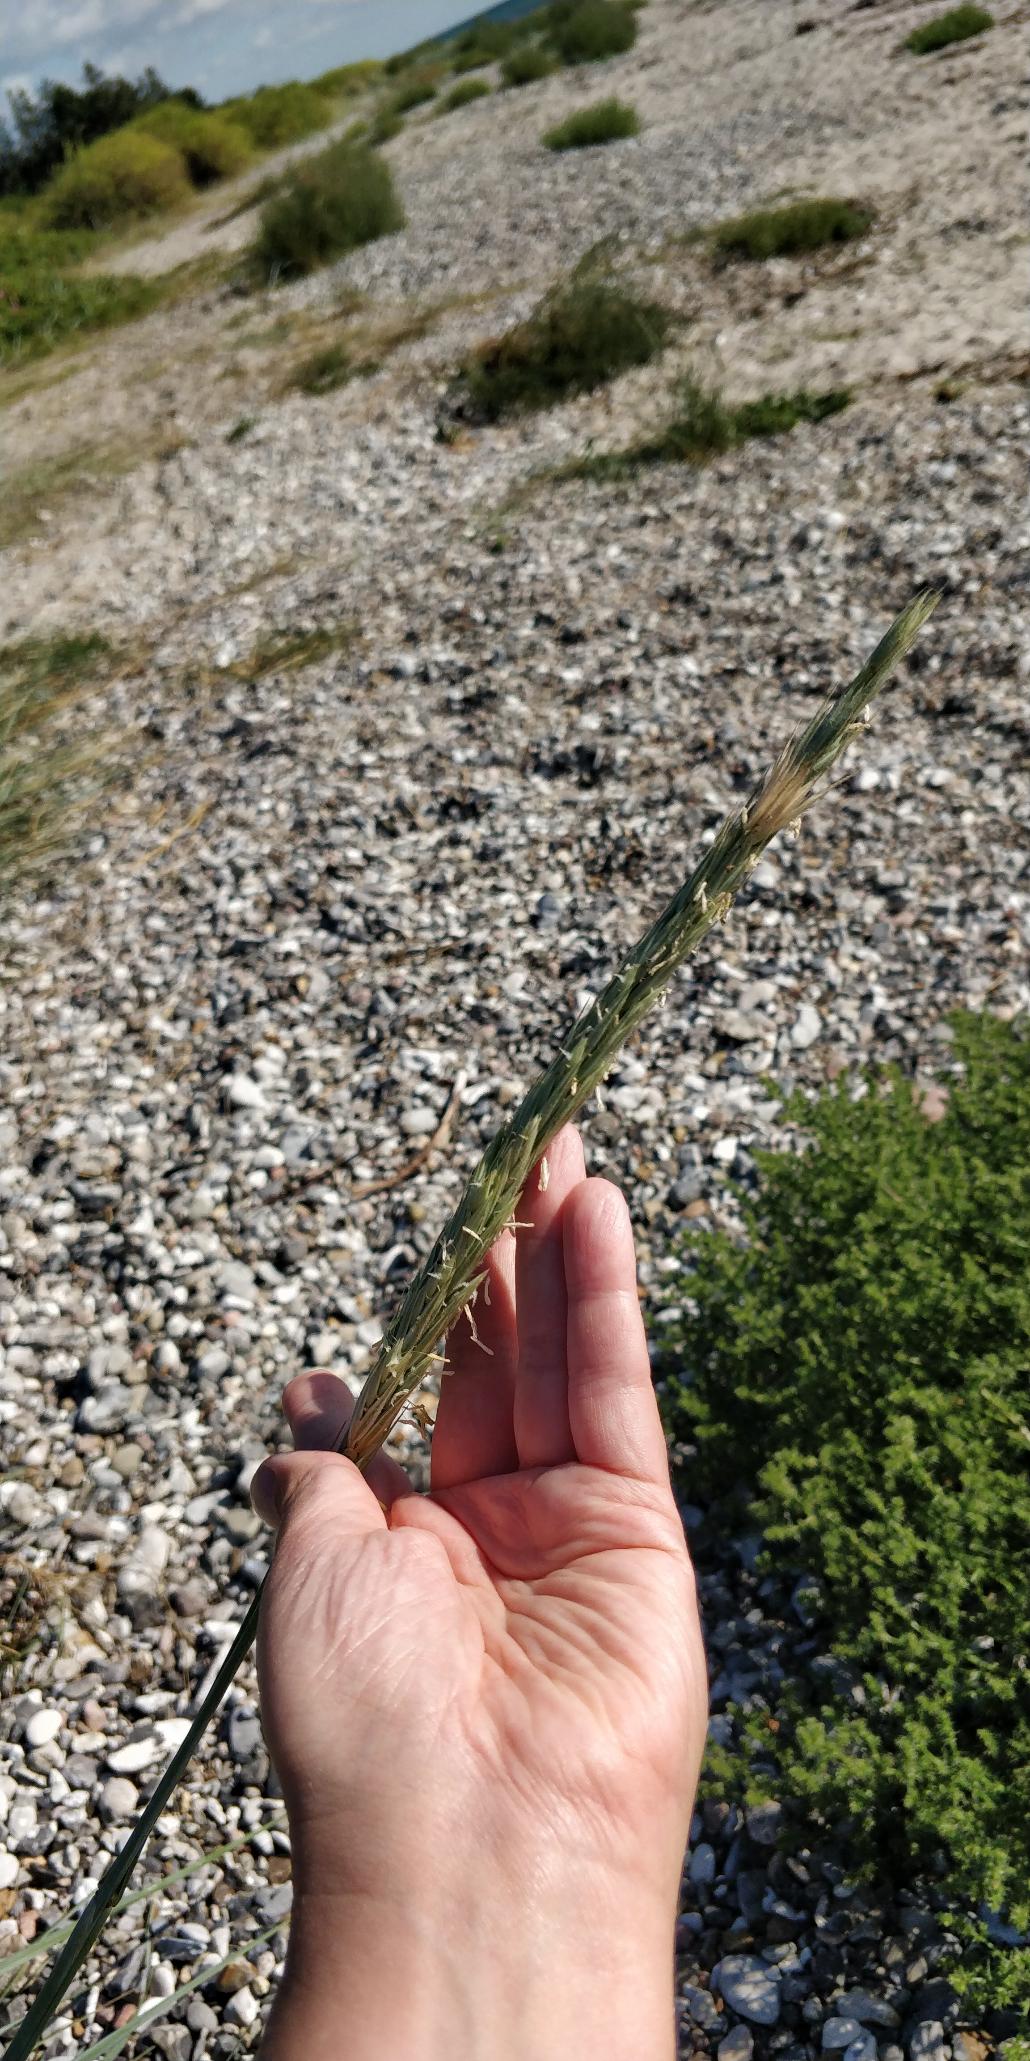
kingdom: Plantae
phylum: Tracheophyta
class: Liliopsida
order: Poales
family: Poaceae
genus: Leymus
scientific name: Leymus arenarius
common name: Marehalm
